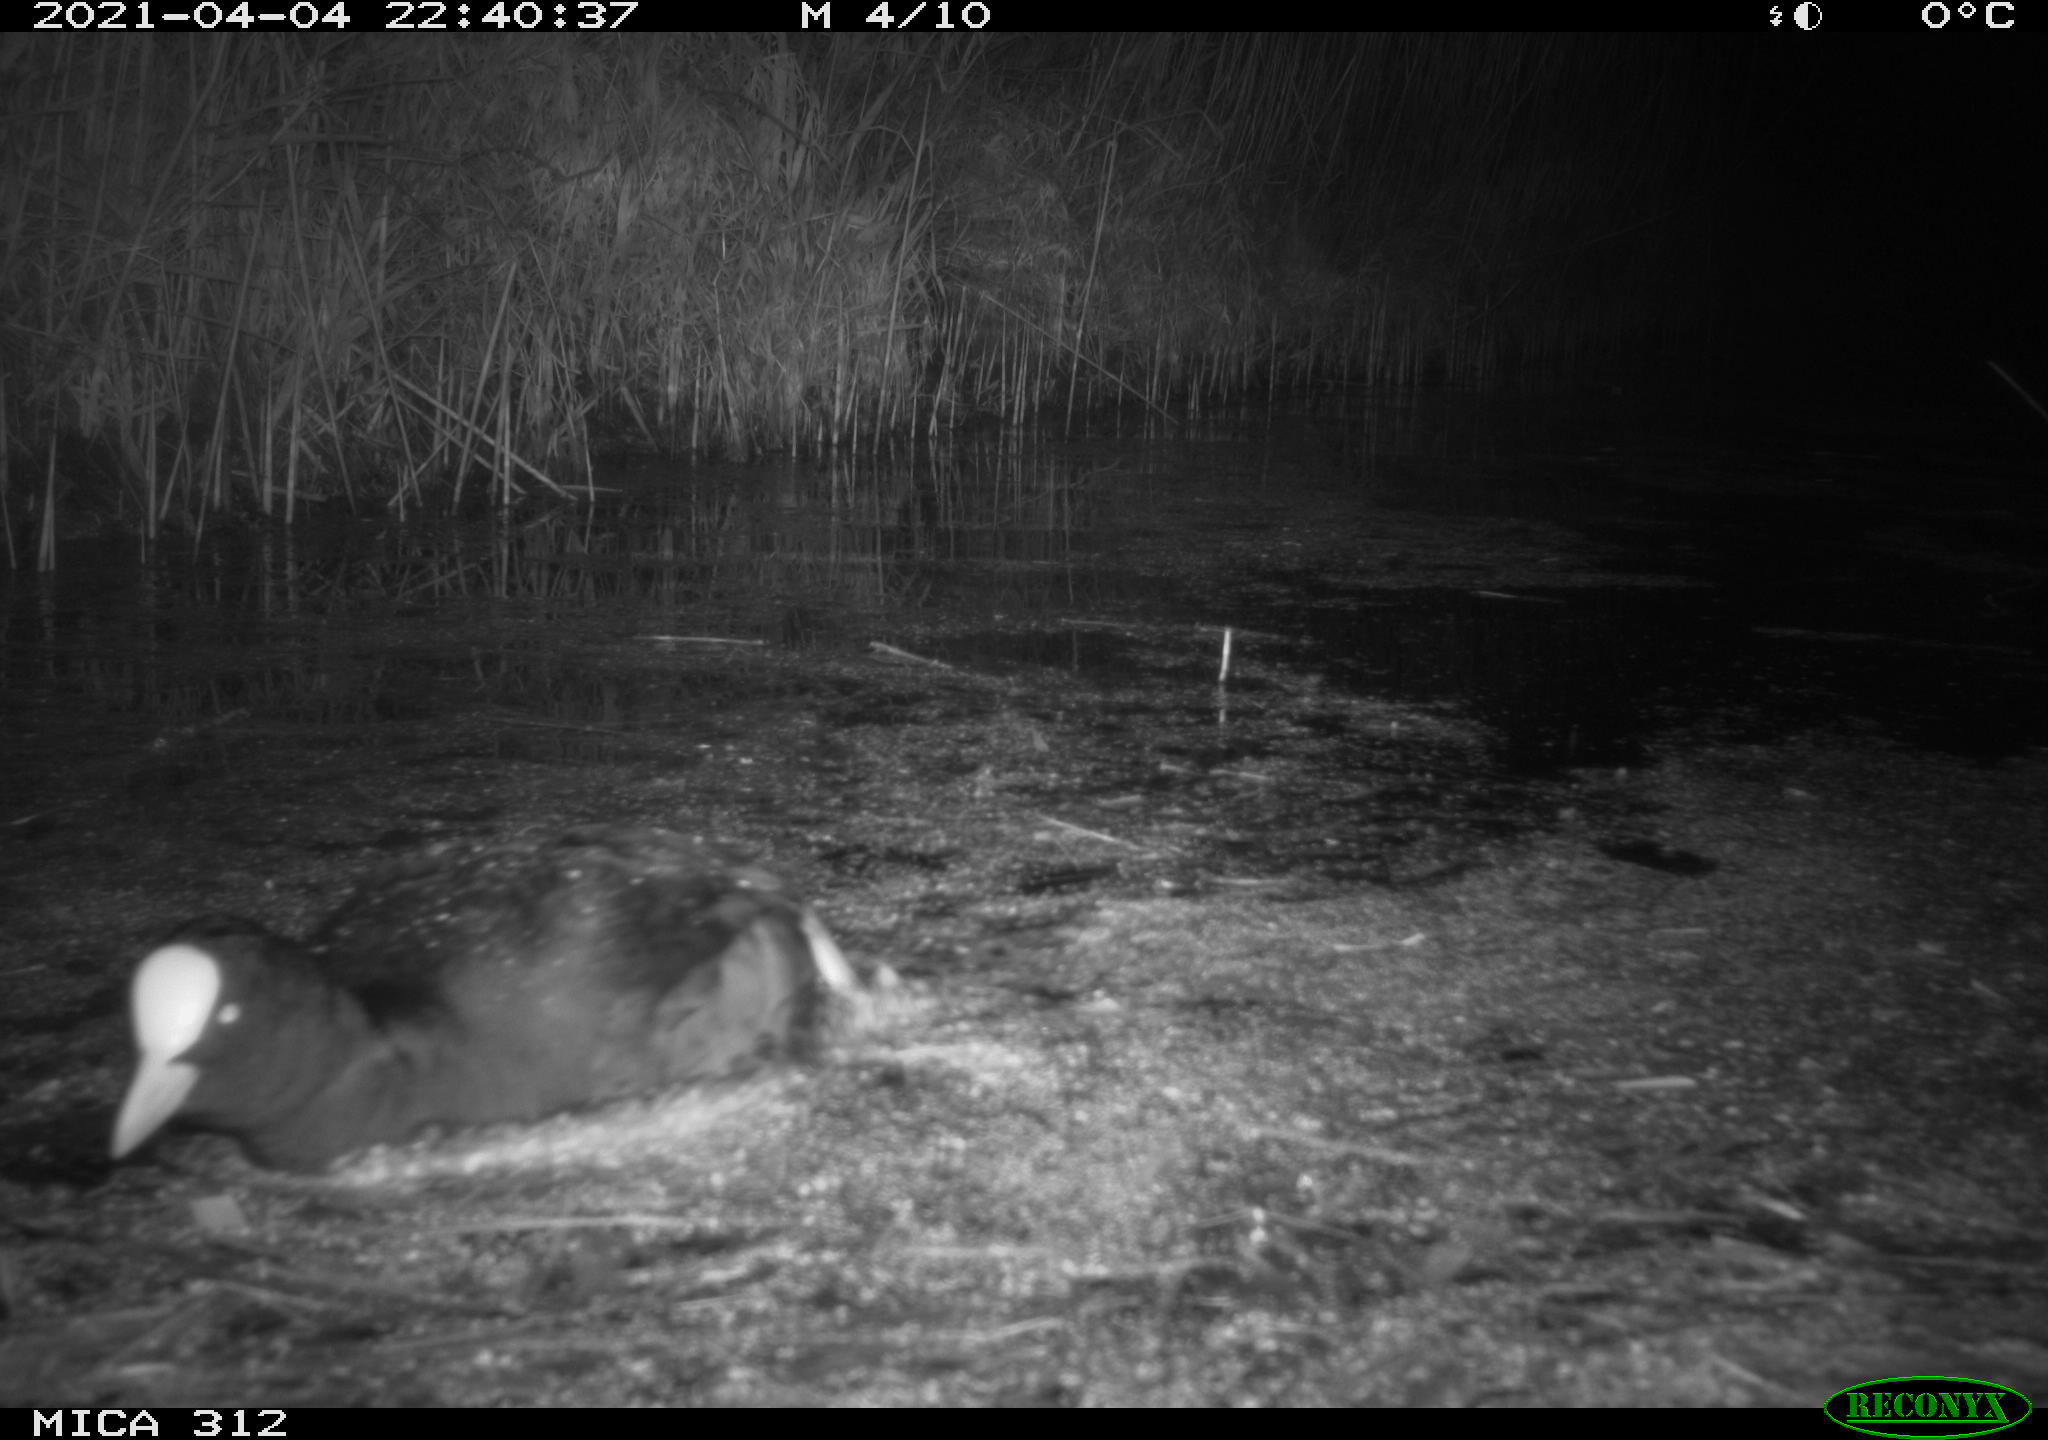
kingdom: Animalia
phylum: Chordata
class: Aves
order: Gruiformes
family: Rallidae
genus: Fulica
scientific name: Fulica atra
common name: Eurasian coot
